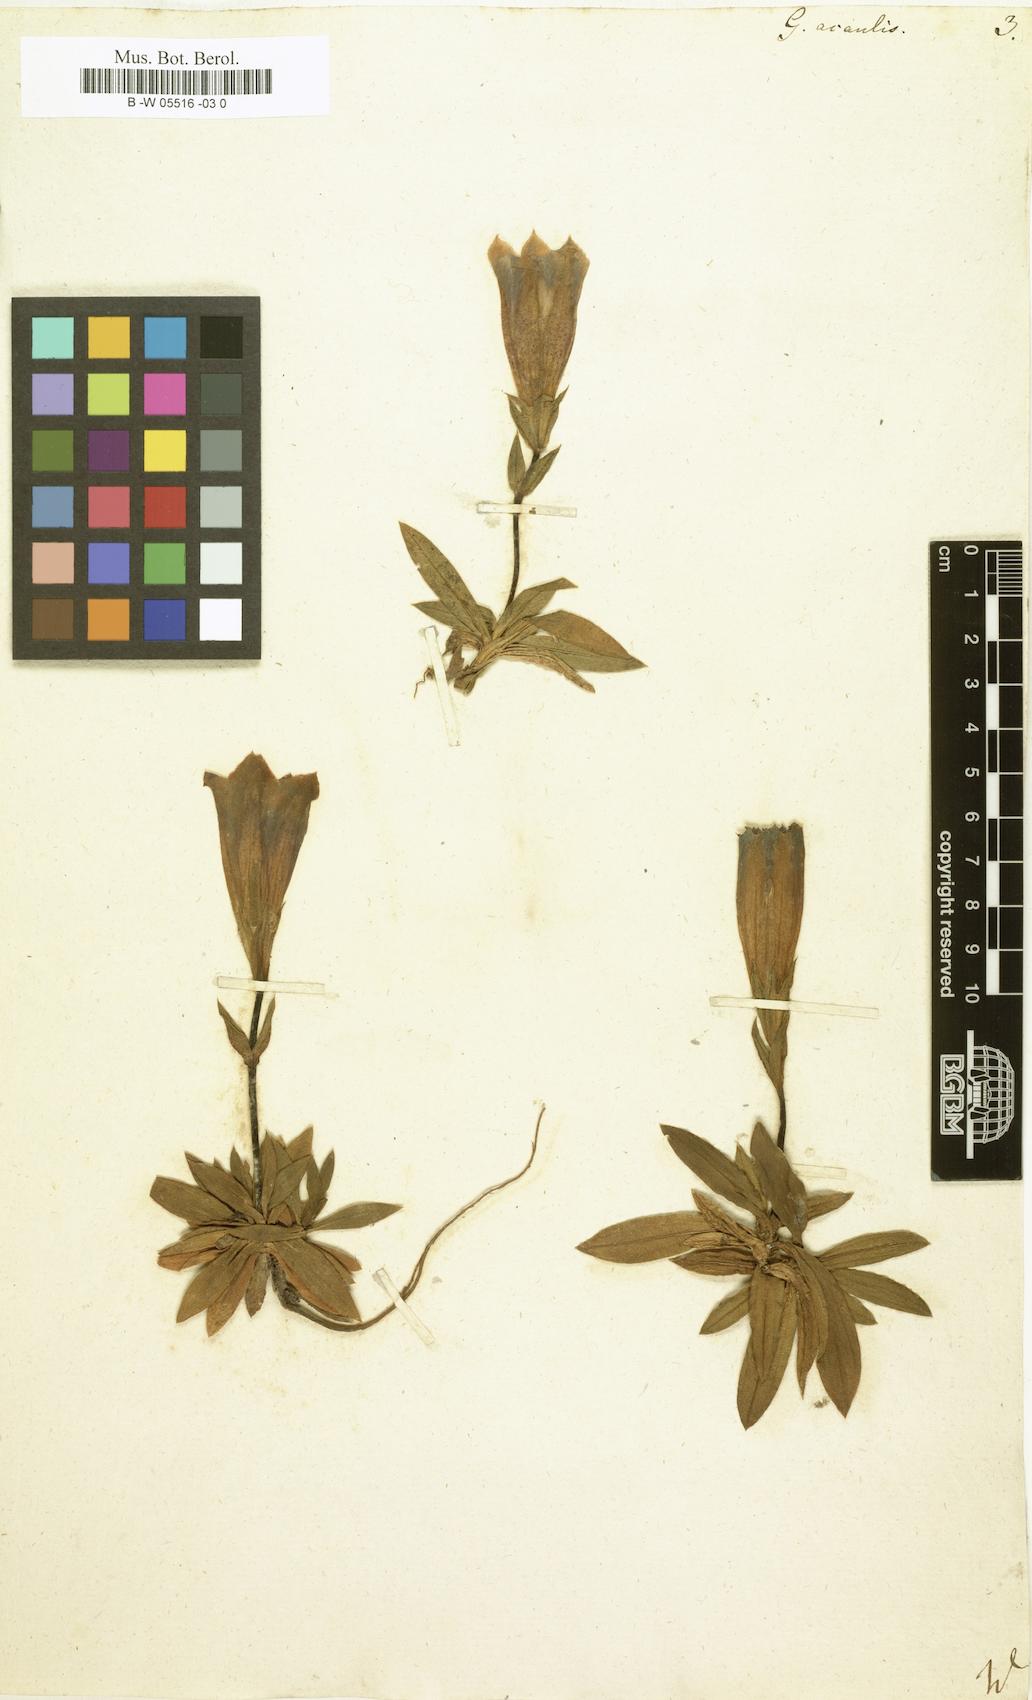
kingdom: Plantae
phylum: Tracheophyta
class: Magnoliopsida
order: Gentianales
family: Gentianaceae
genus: Gentiana
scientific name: Gentiana acaulis
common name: Trumpet gentian
